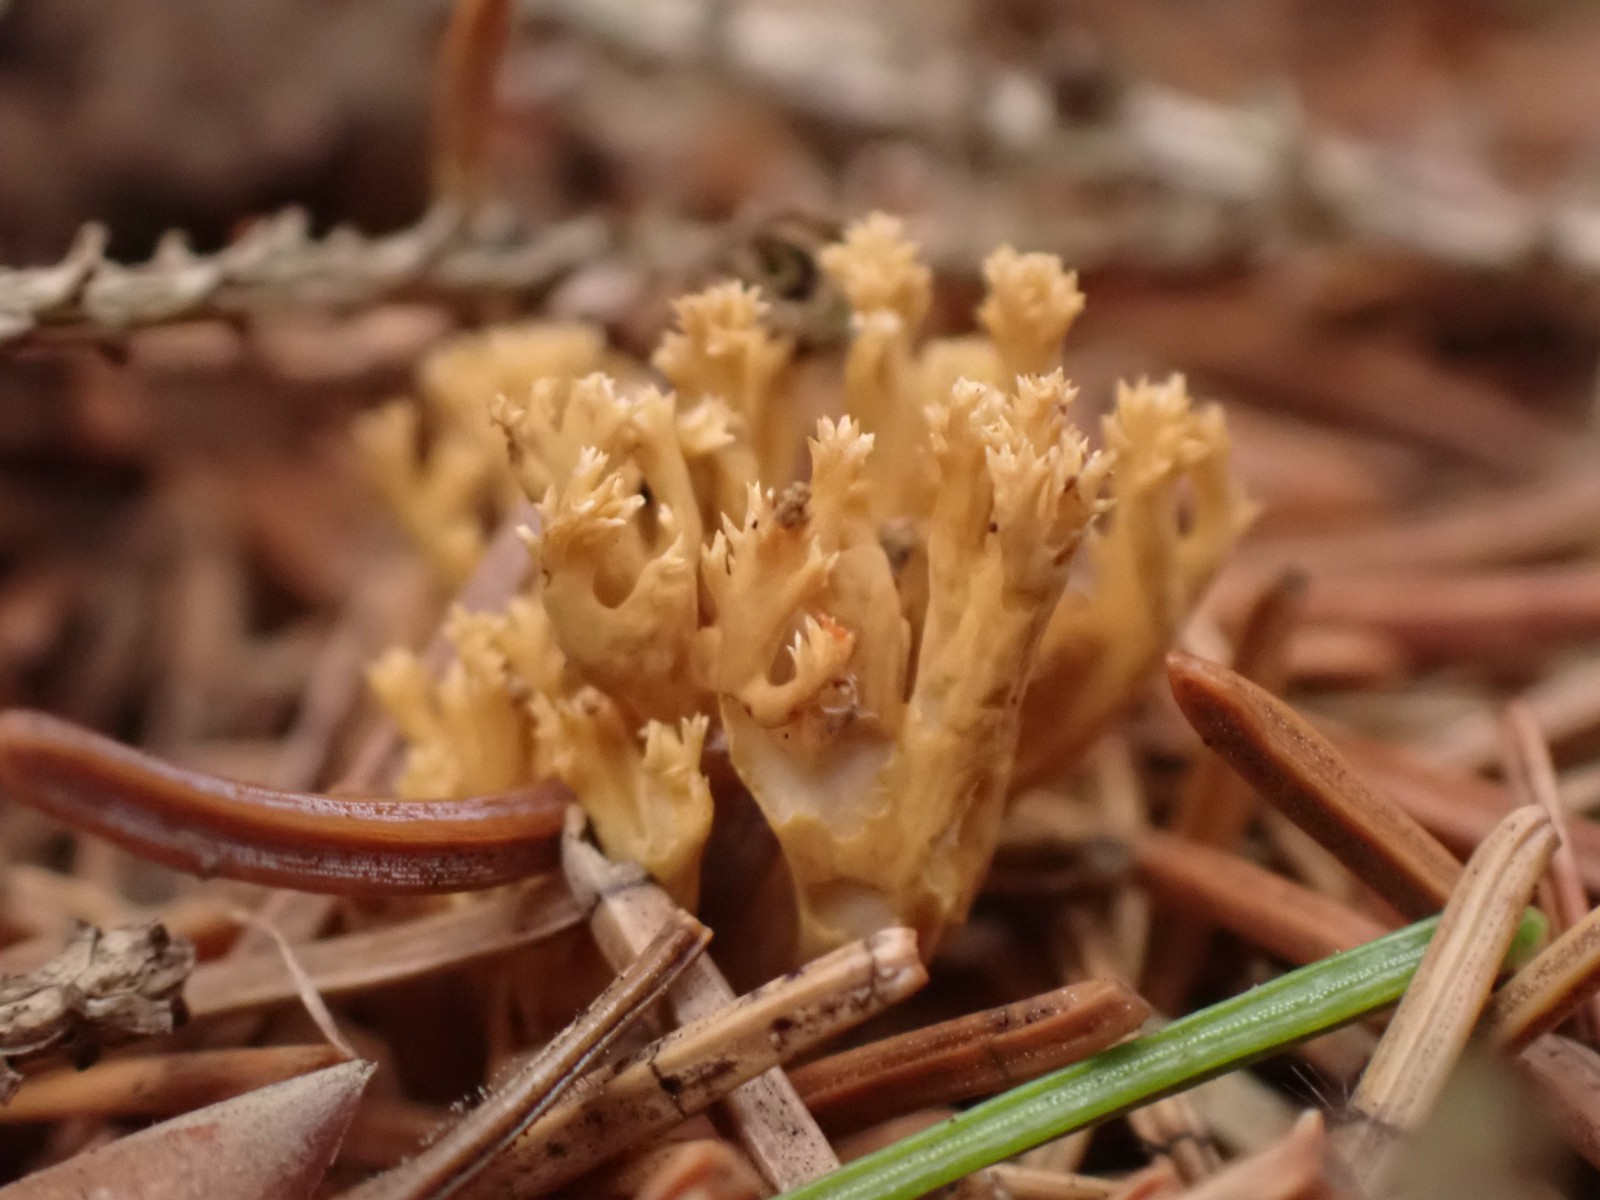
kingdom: Fungi
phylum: Basidiomycota
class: Agaricomycetes
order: Gomphales
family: Gomphaceae
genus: Phaeoclavulina
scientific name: Phaeoclavulina eumorpha
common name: gran-koralsvamp
